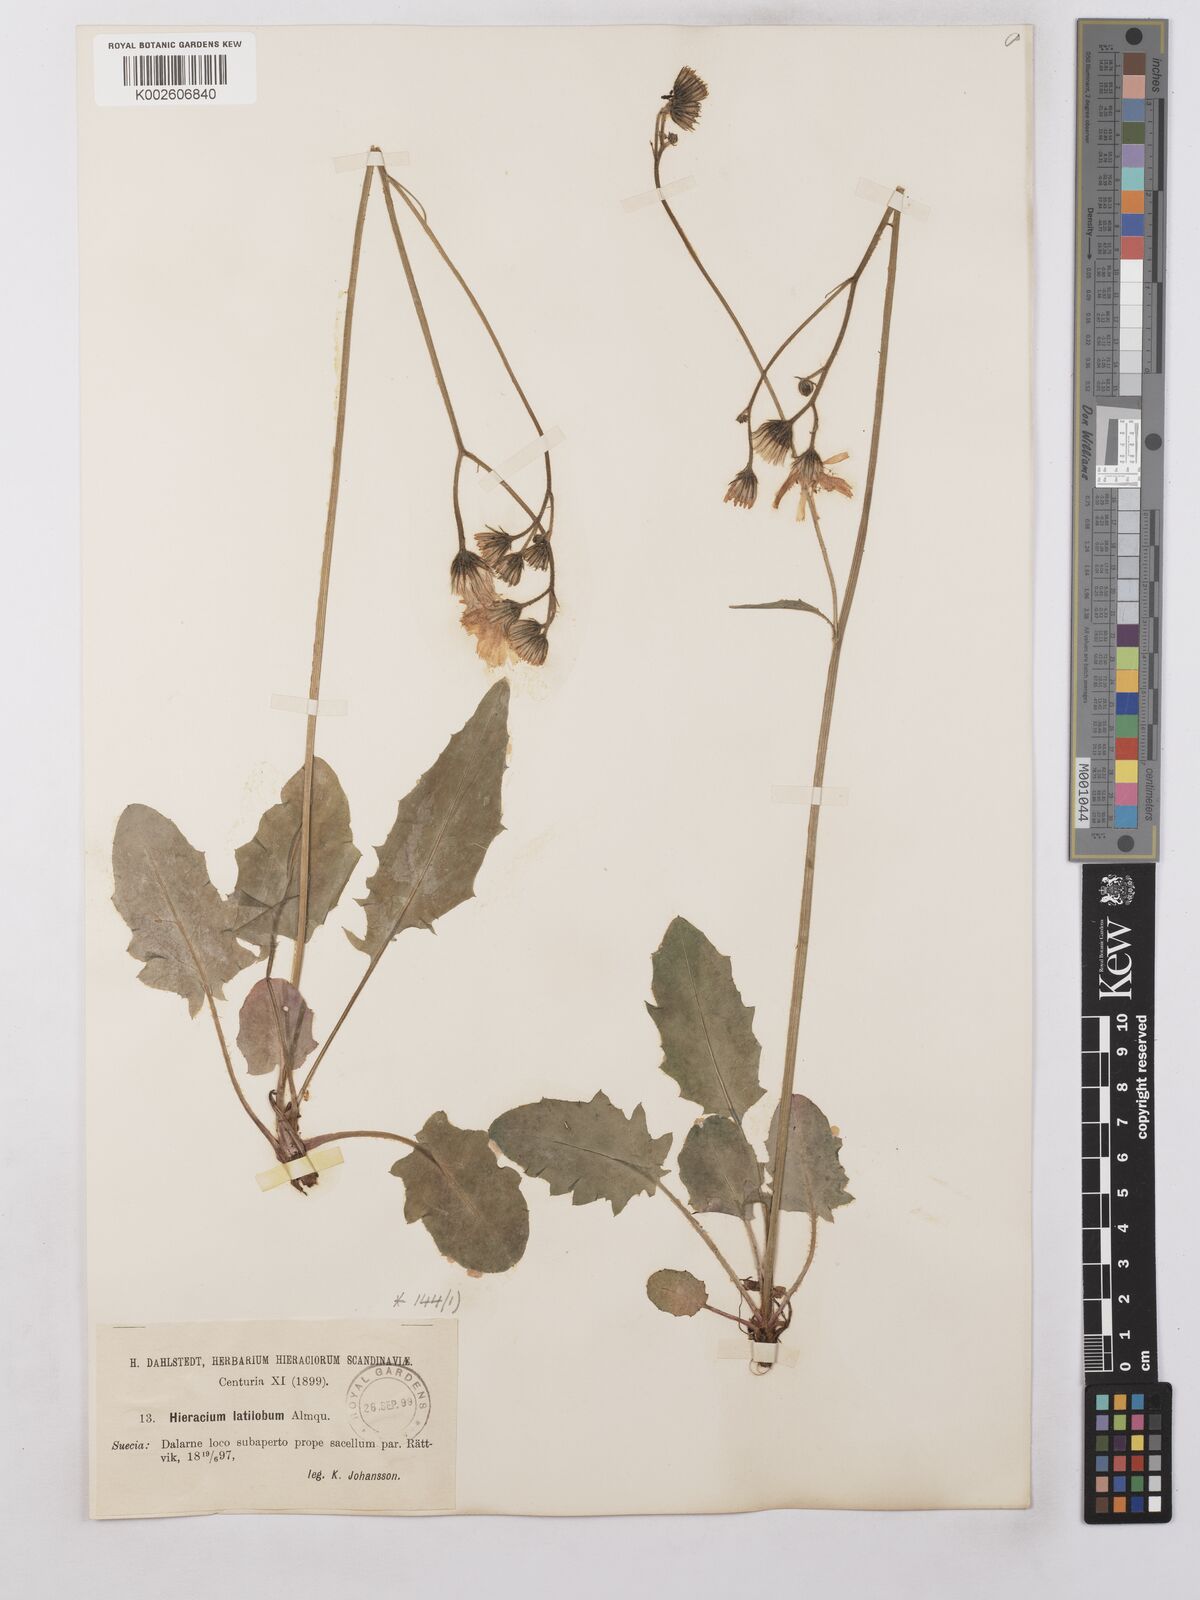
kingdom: Plantae
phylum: Tracheophyta
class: Magnoliopsida
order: Asterales
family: Asteraceae
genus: Hieracium
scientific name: Hieracium chlorellum
